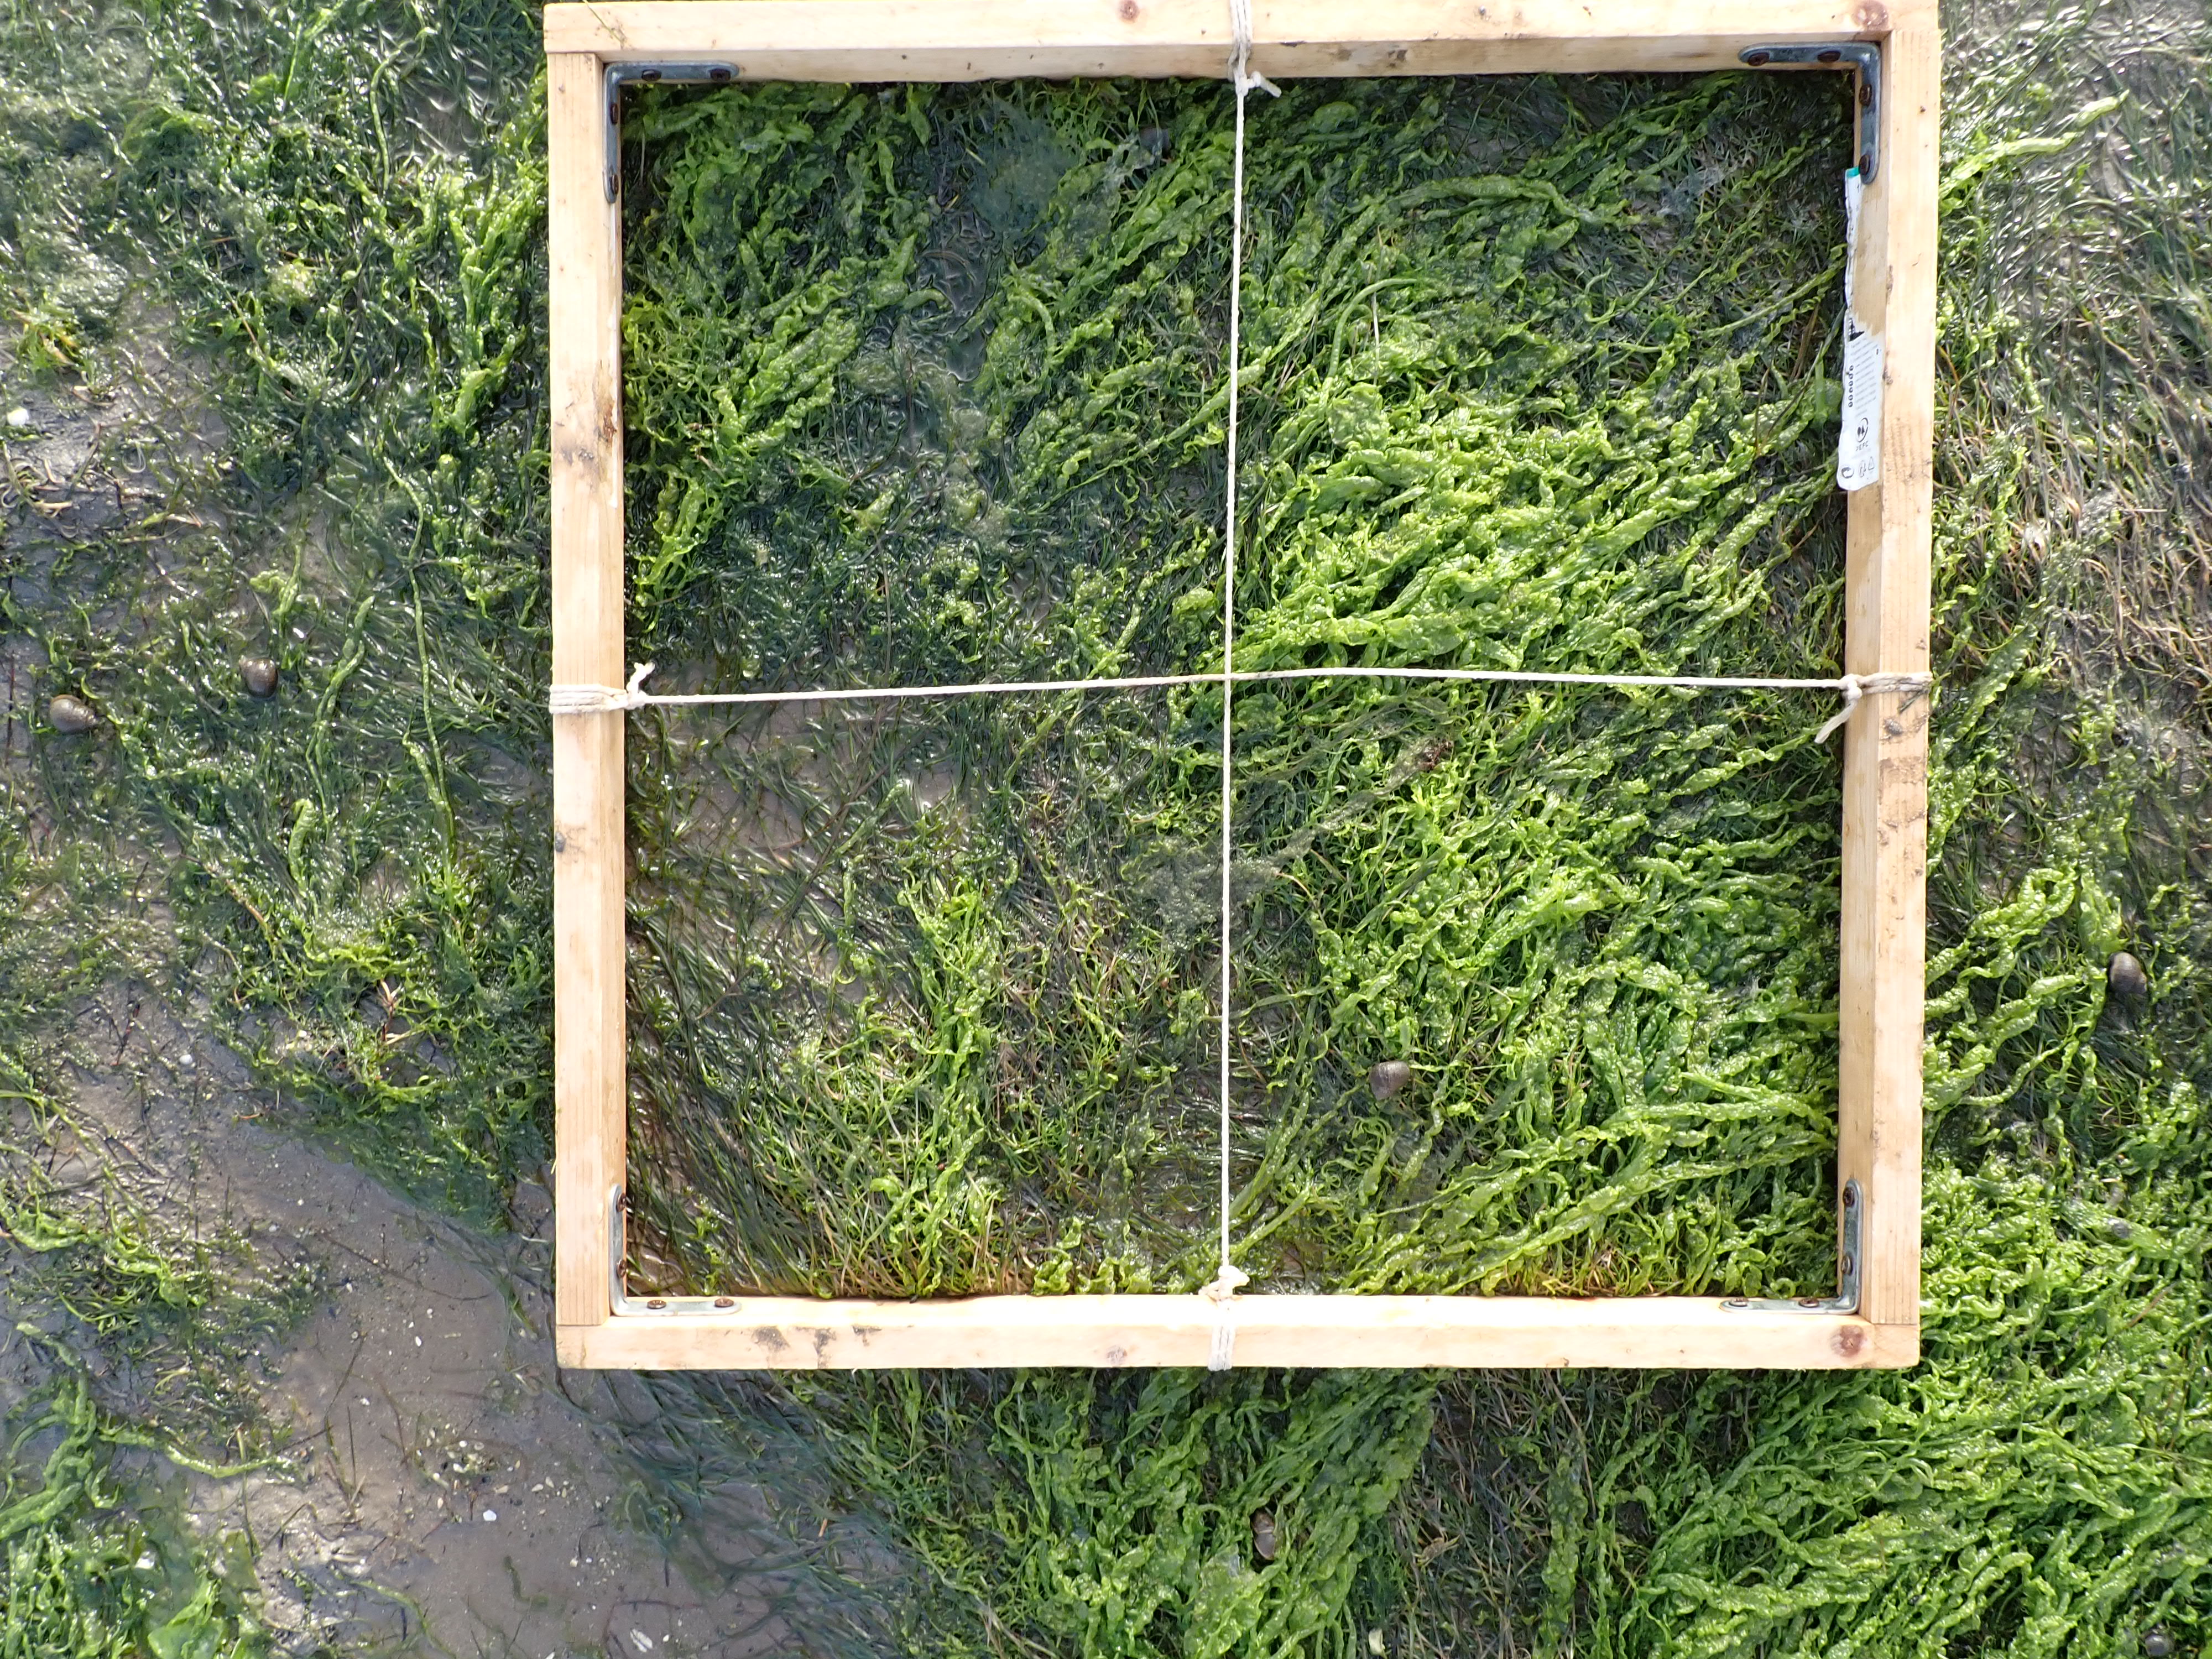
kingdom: Plantae
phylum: Tracheophyta
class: Liliopsida
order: Alismatales
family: Zosteraceae
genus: Zostera
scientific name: Zostera noltii
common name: Dwarf eelgrass
